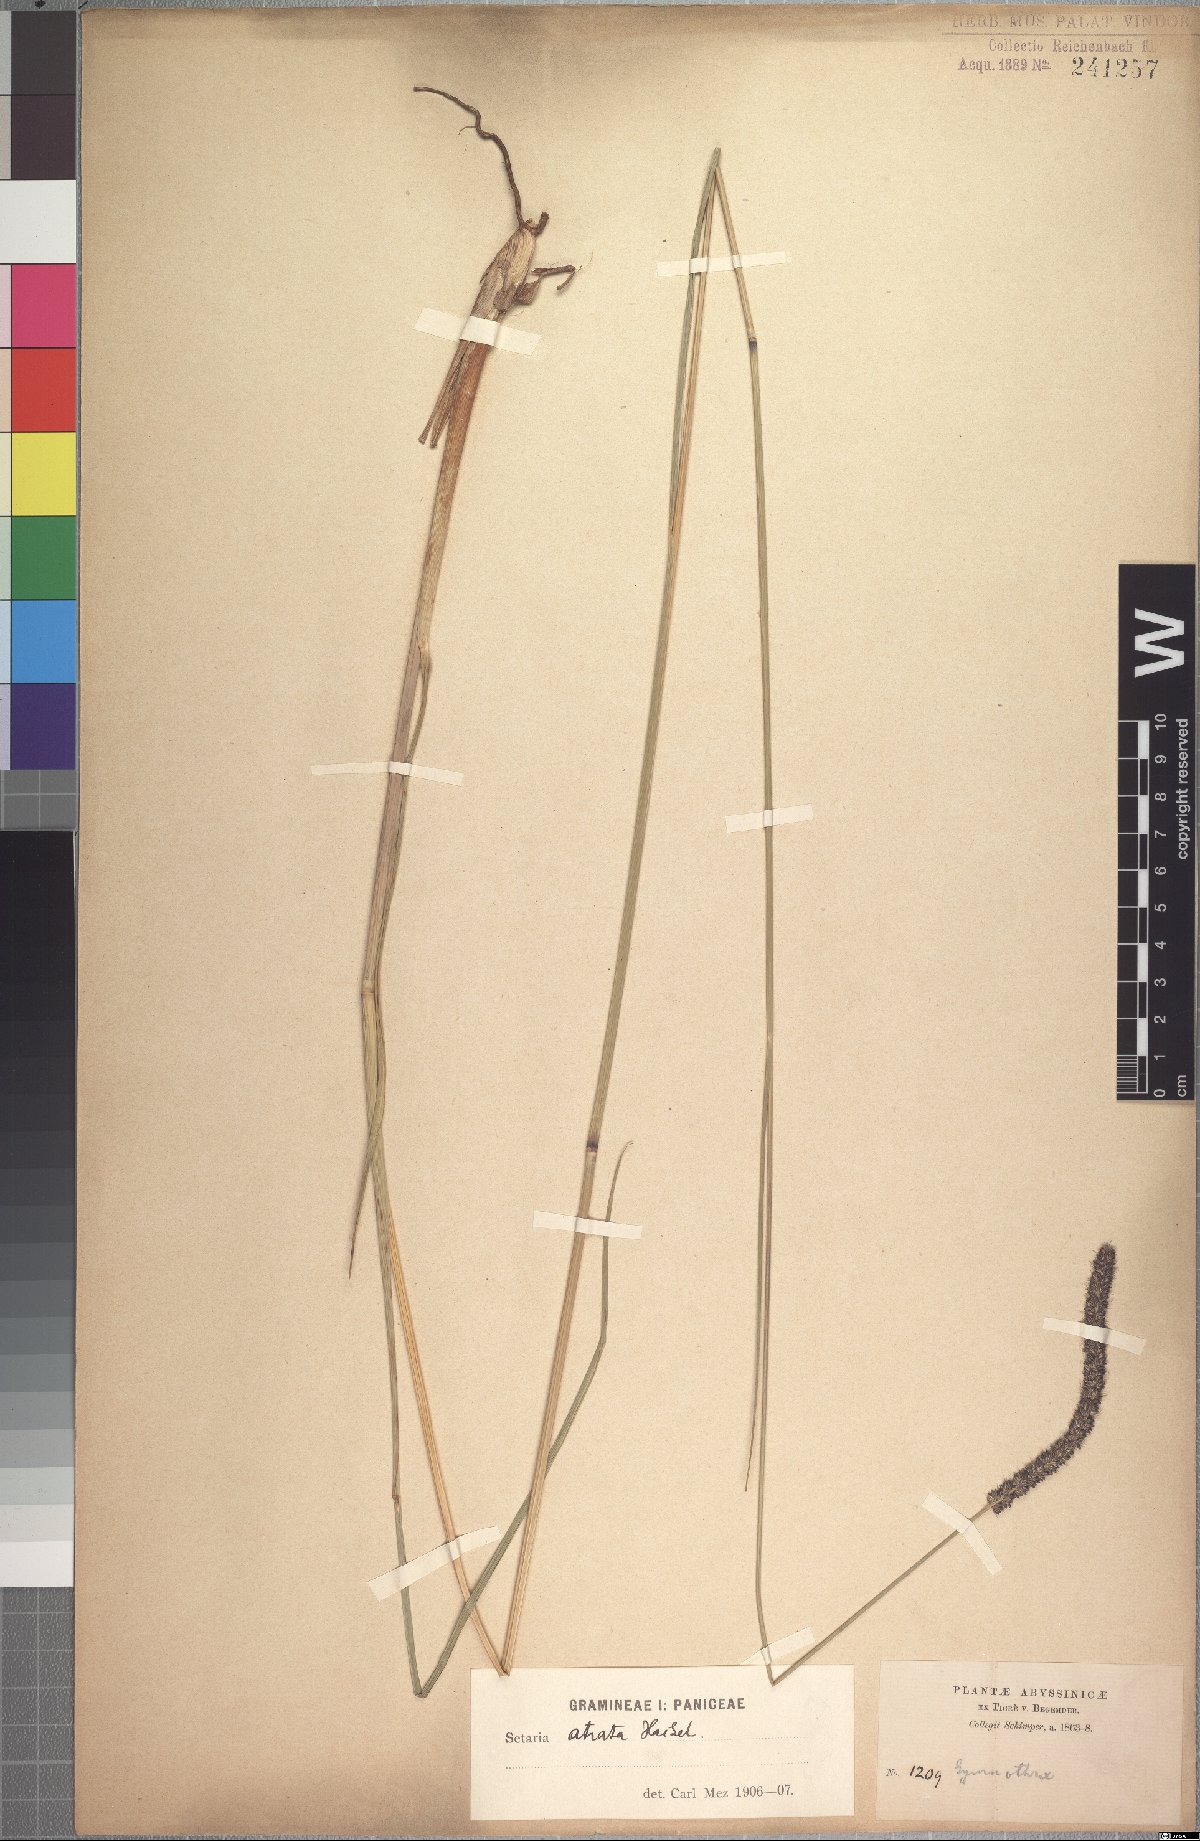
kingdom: Plantae
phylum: Tracheophyta
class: Liliopsida
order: Poales
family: Poaceae
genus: Setaria
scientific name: Setaria atrata
